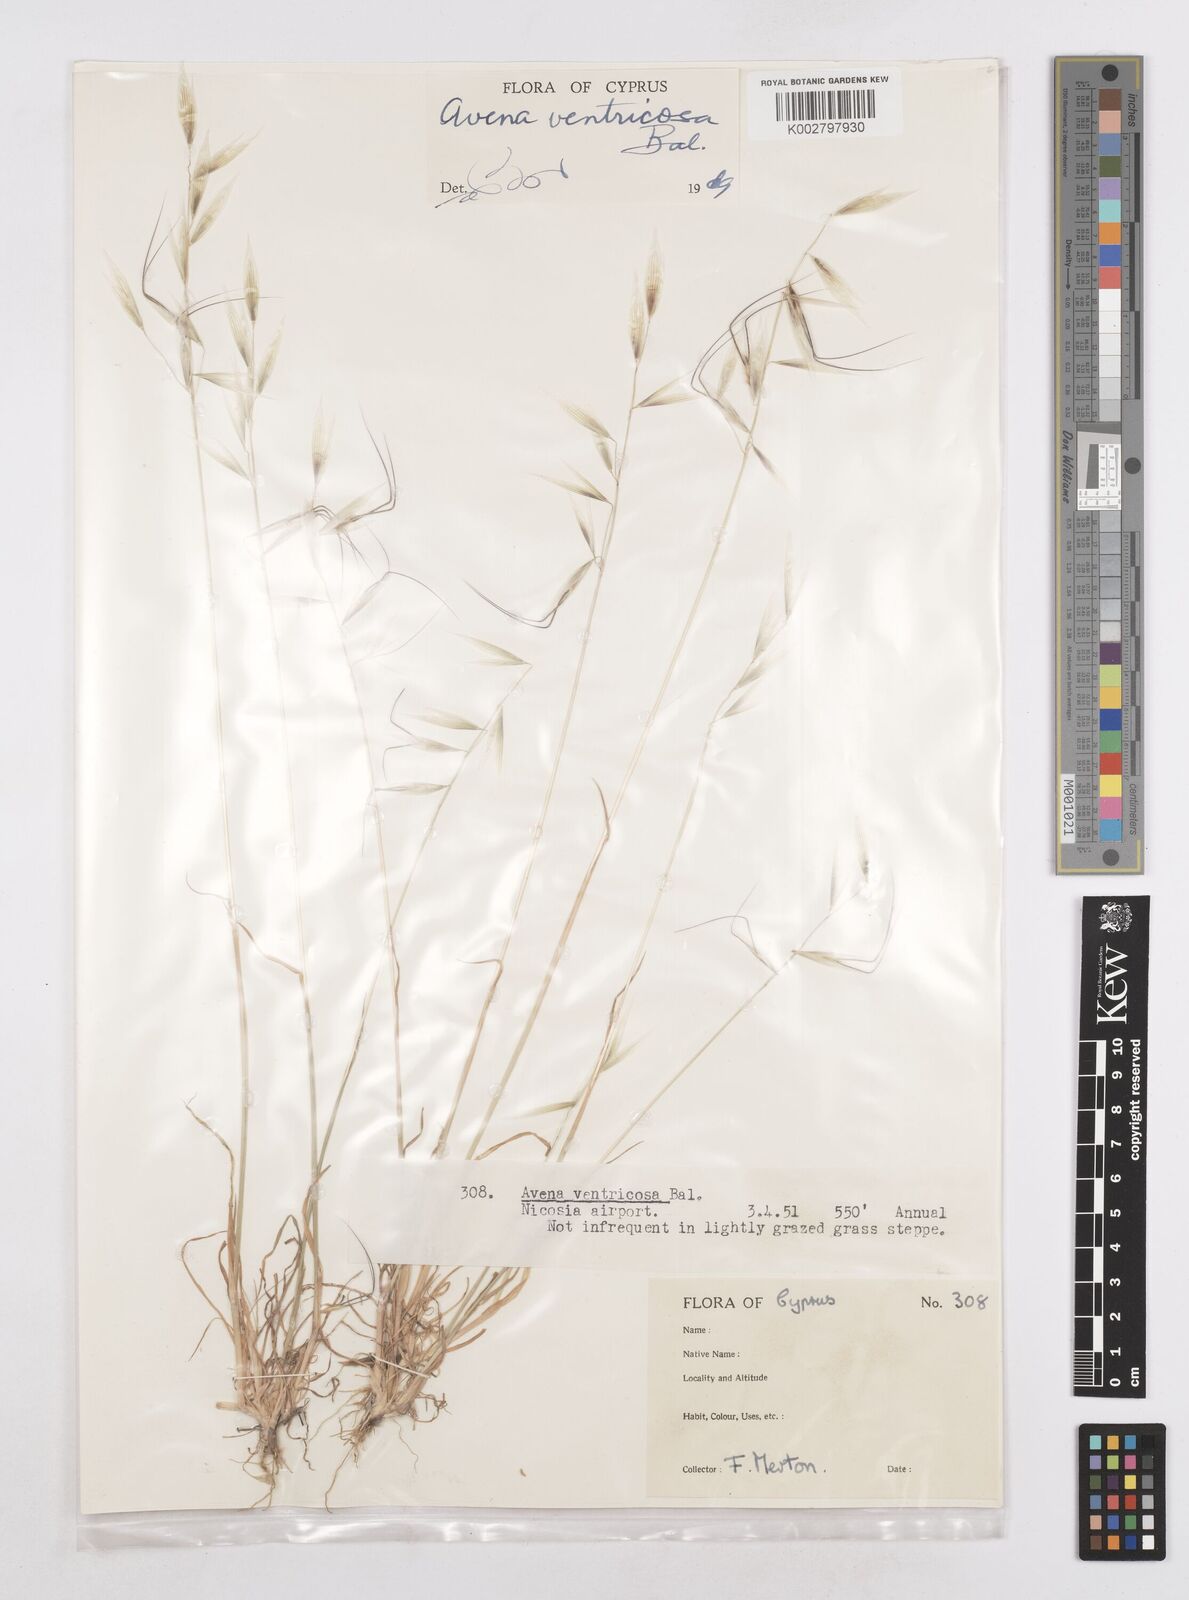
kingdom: Plantae
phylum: Tracheophyta
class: Liliopsida
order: Poales
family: Poaceae
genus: Avena
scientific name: Avena ventricosa
